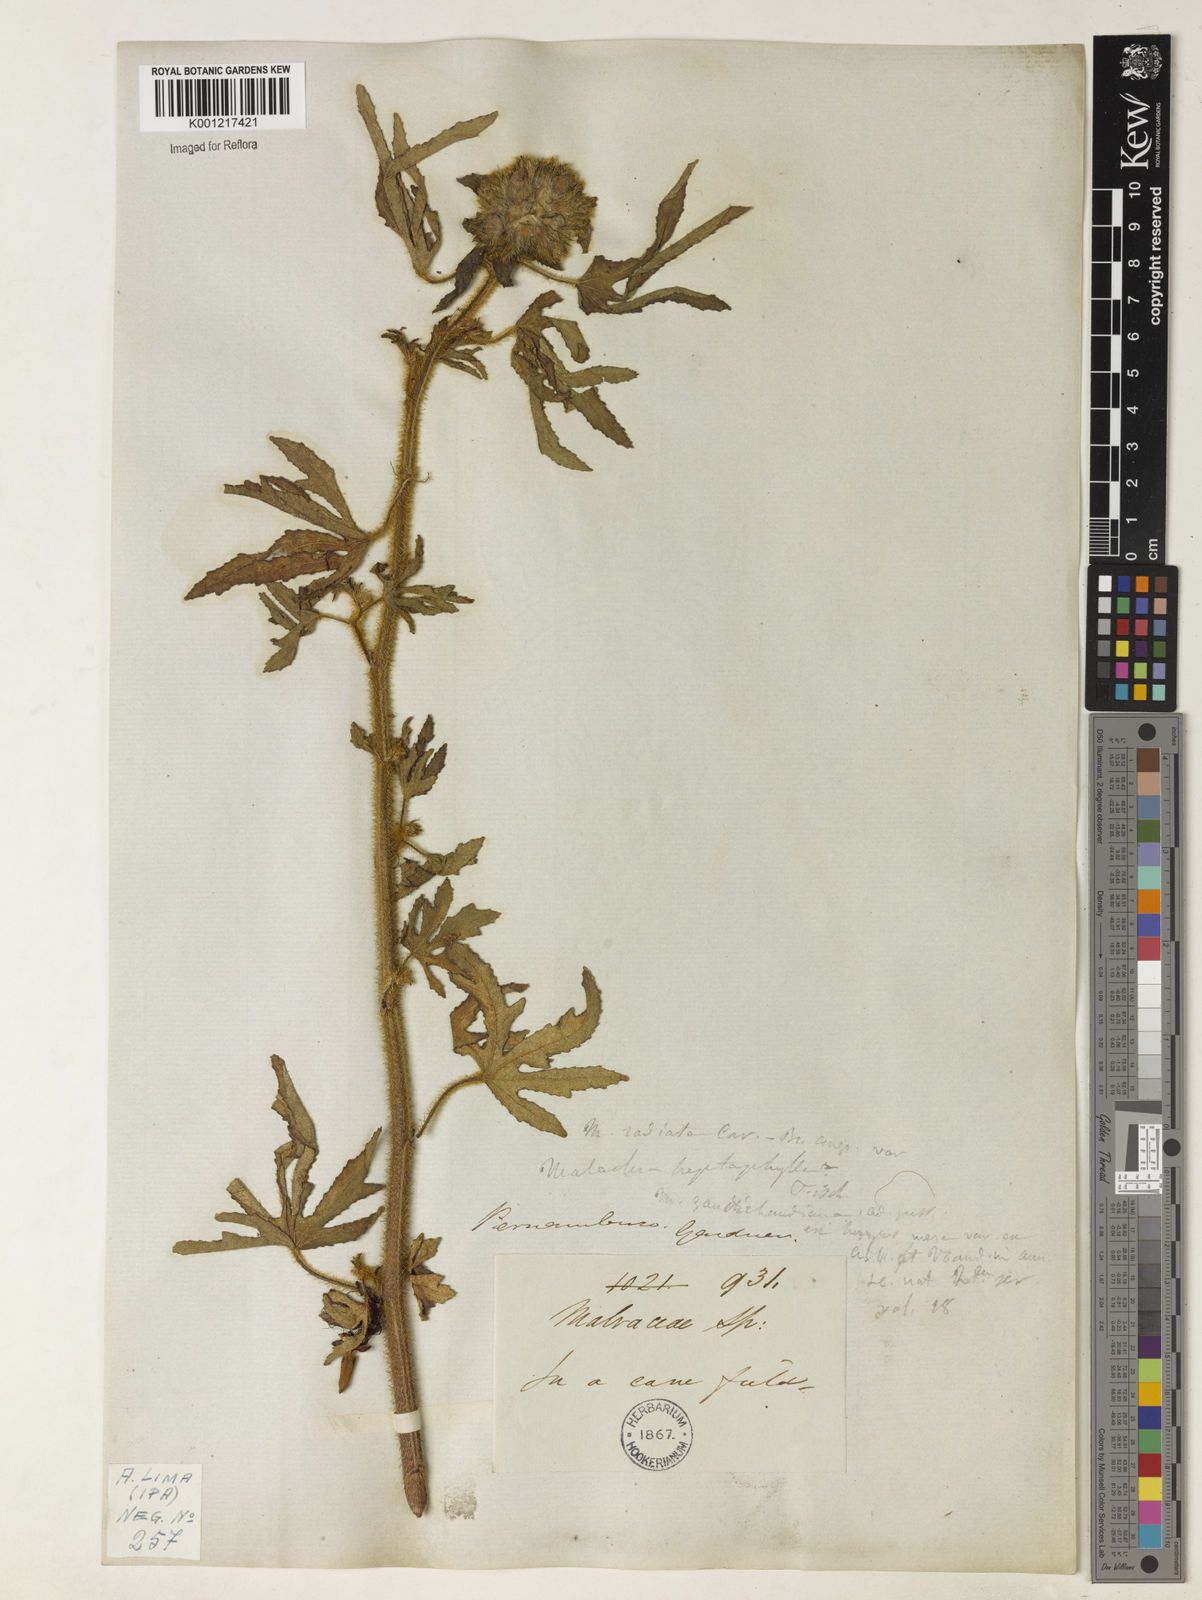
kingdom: Plantae
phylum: Tracheophyta
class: Magnoliopsida
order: Malvales
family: Malvaceae
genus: Malachra
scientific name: Malachra radiata
